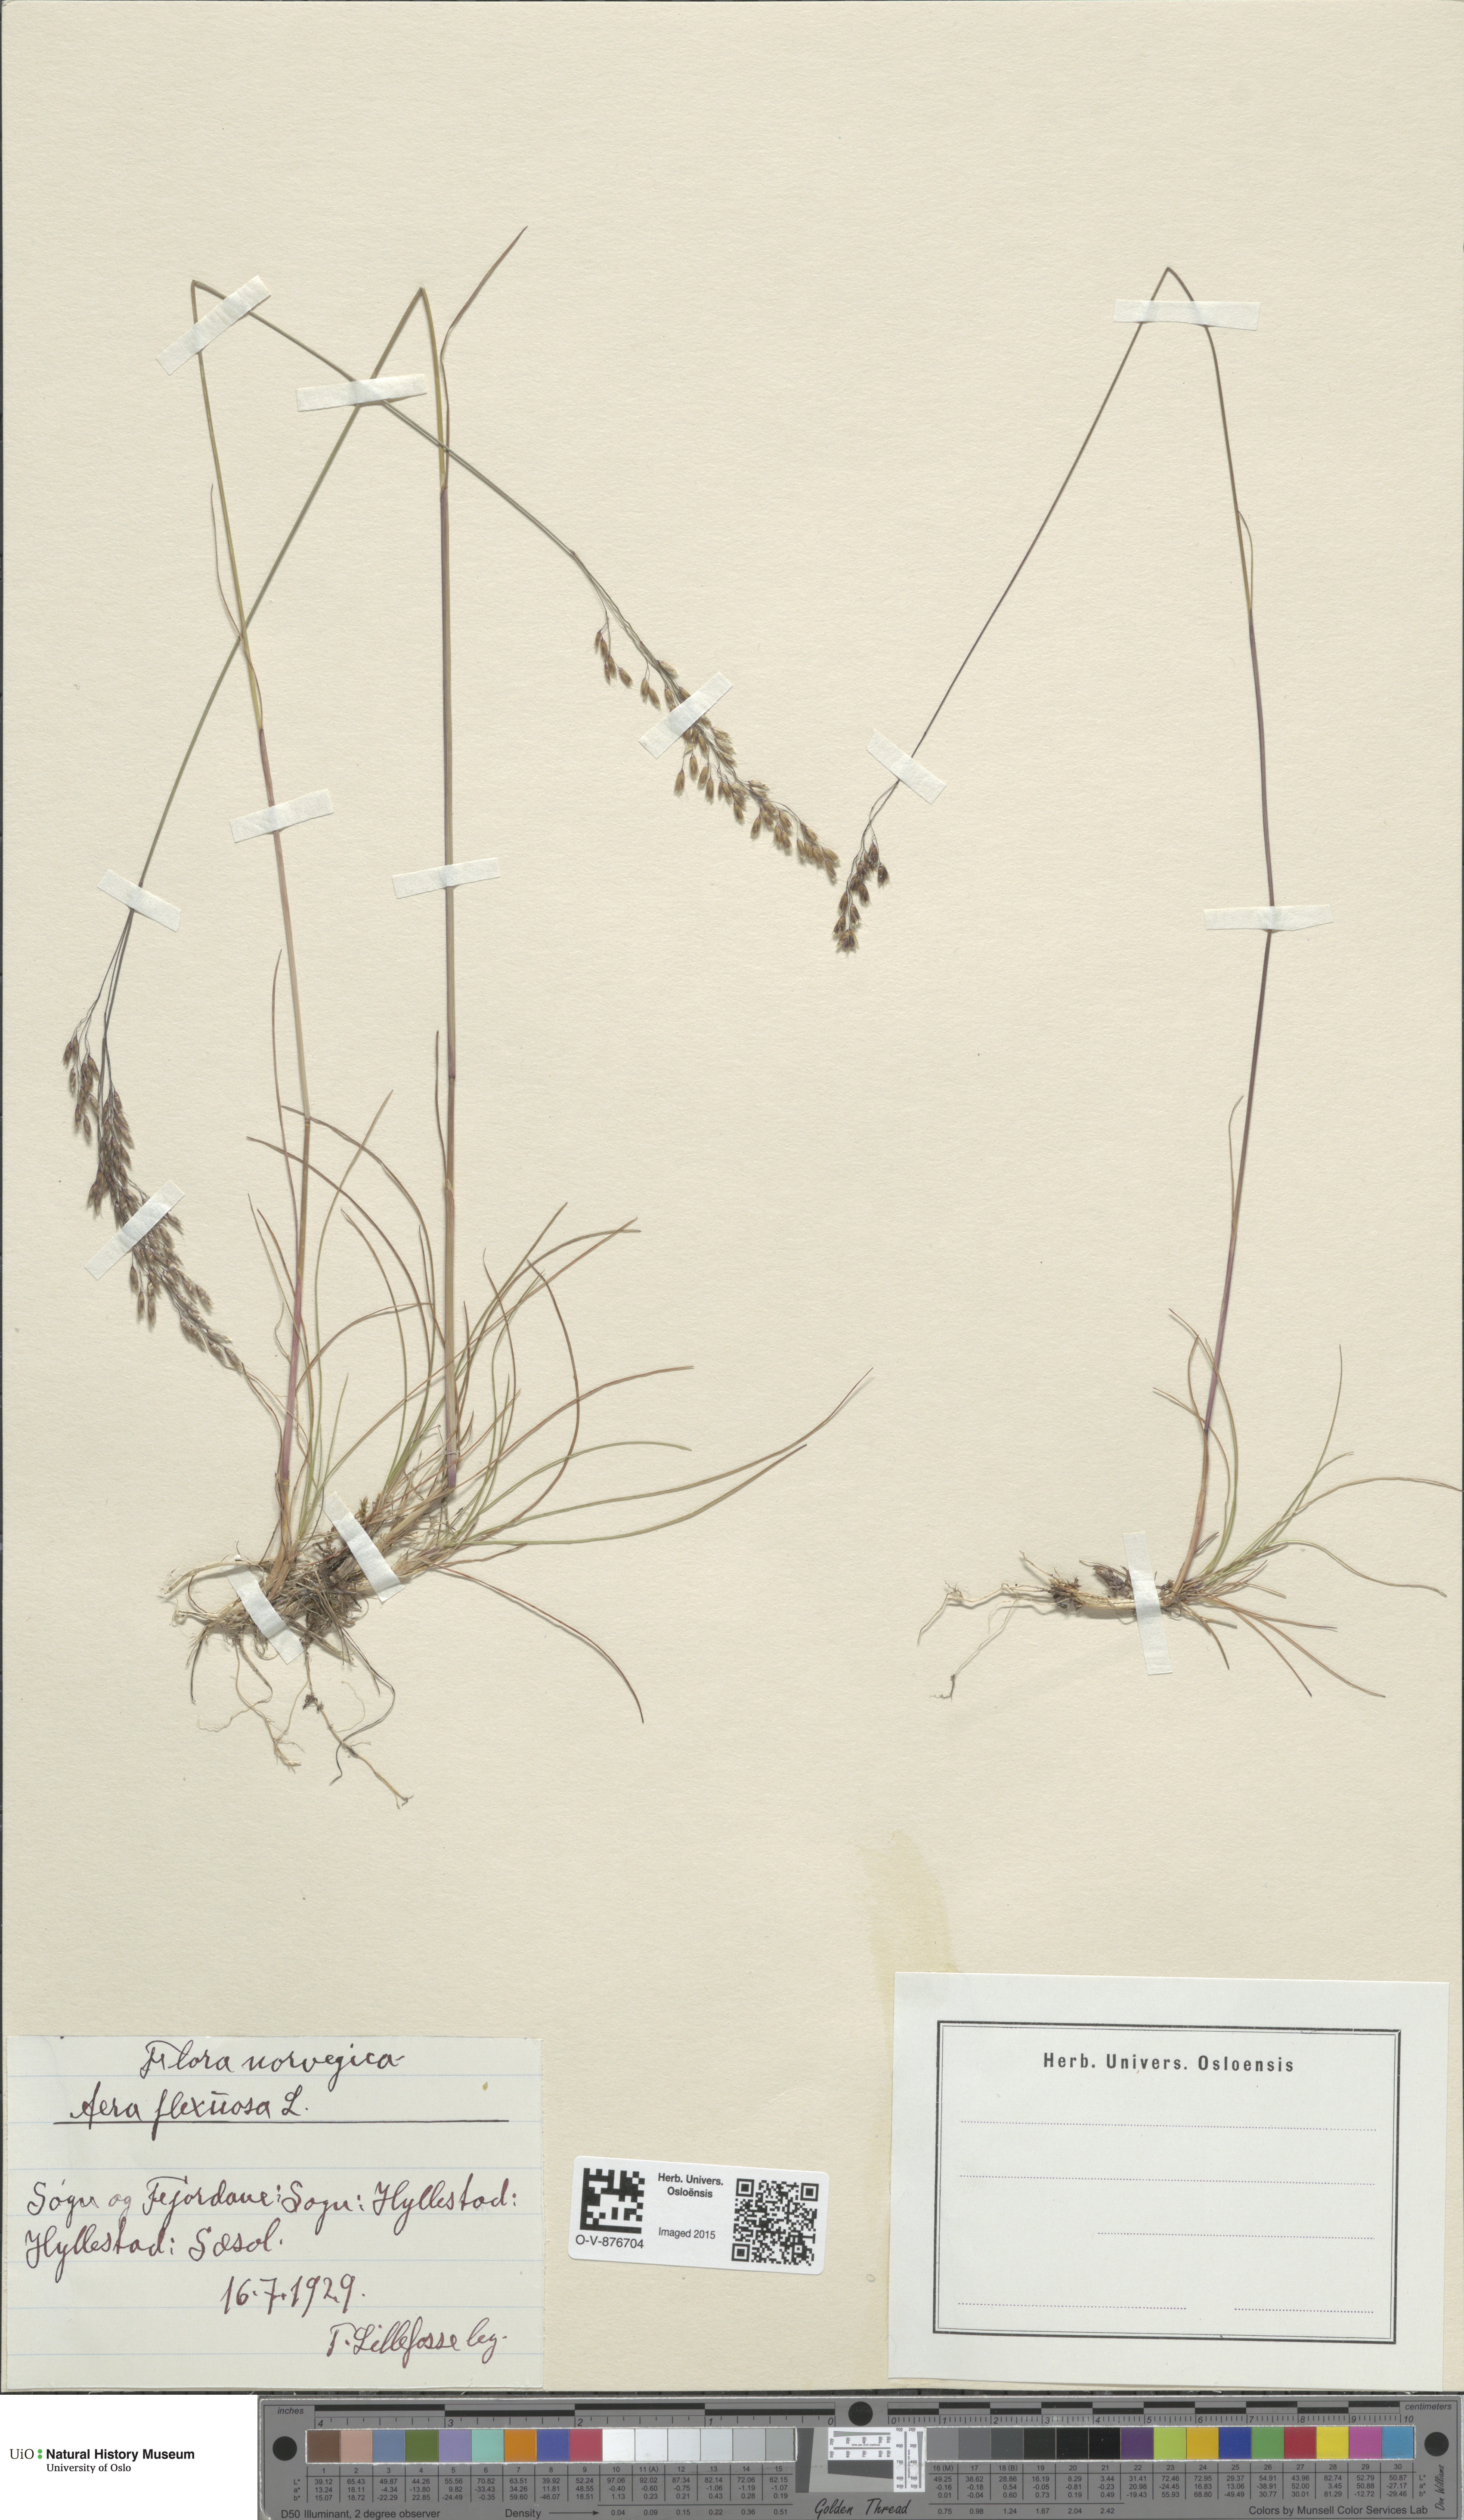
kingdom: Plantae
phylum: Tracheophyta
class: Liliopsida
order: Poales
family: Poaceae
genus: Avenella
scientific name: Avenella flexuosa
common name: Wavy hairgrass
